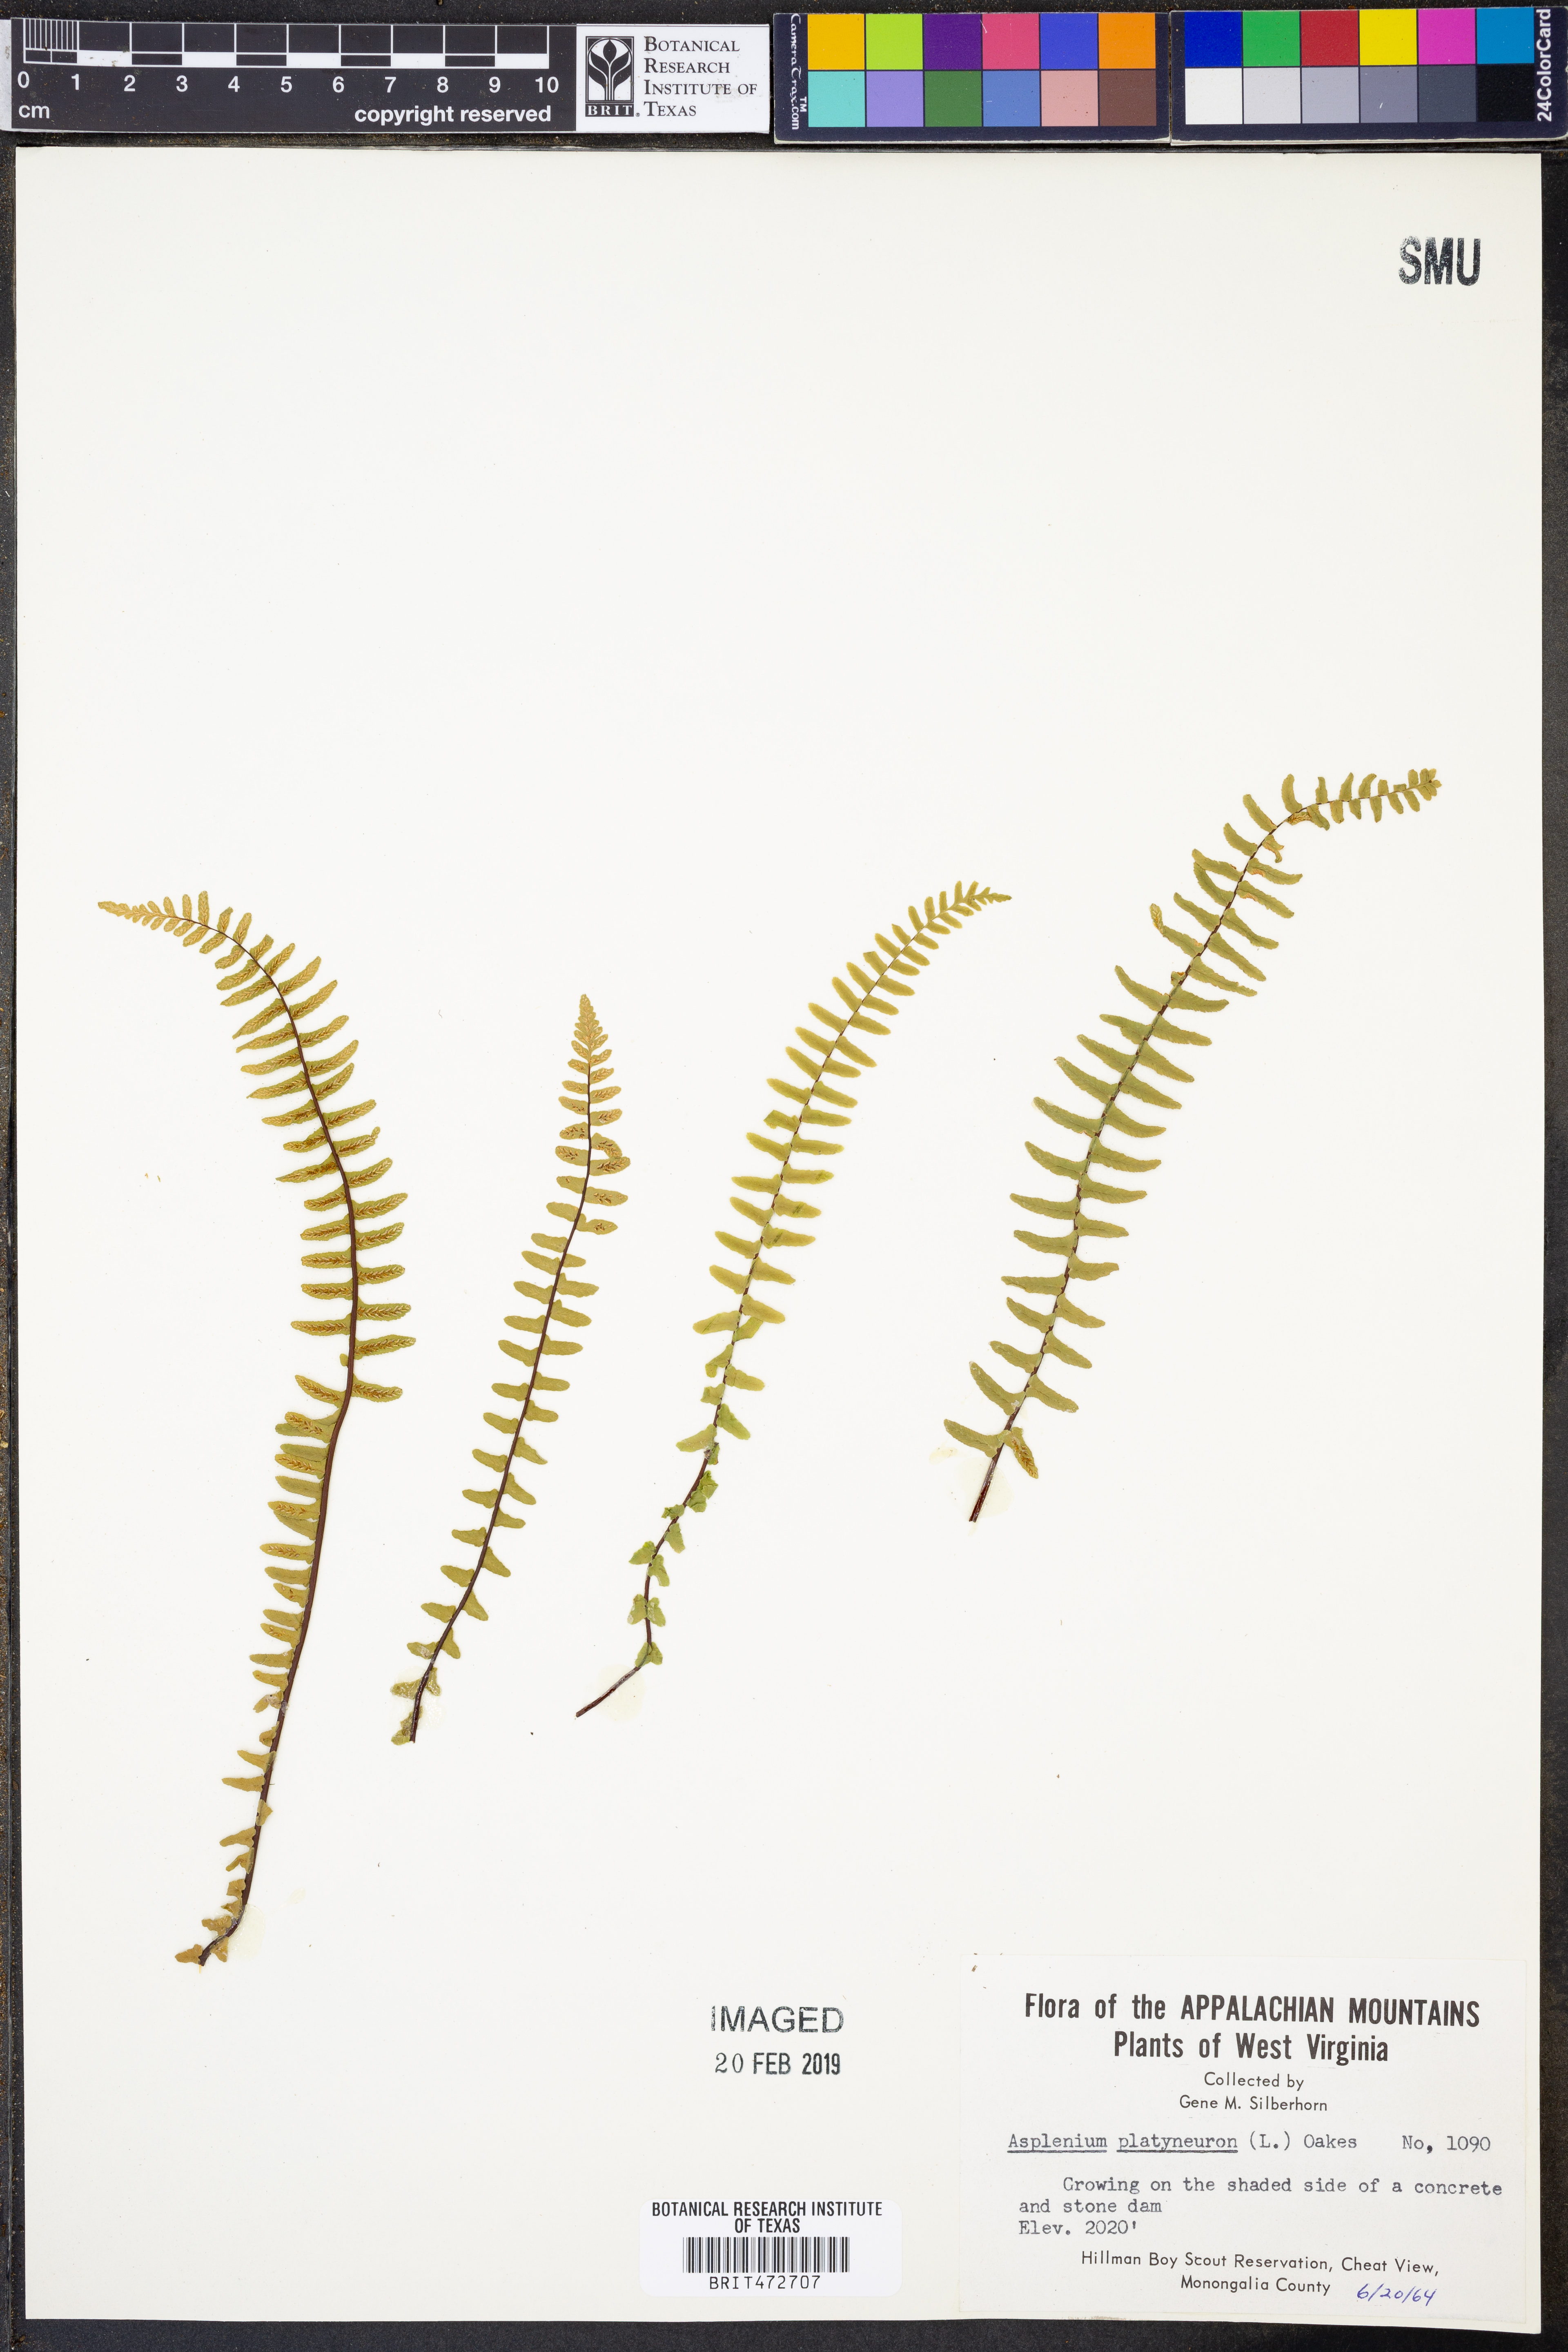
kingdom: Plantae
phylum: Tracheophyta
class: Polypodiopsida
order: Polypodiales
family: Aspleniaceae
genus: Asplenium
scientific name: Asplenium platyneuron
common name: Ebony spleenwort
